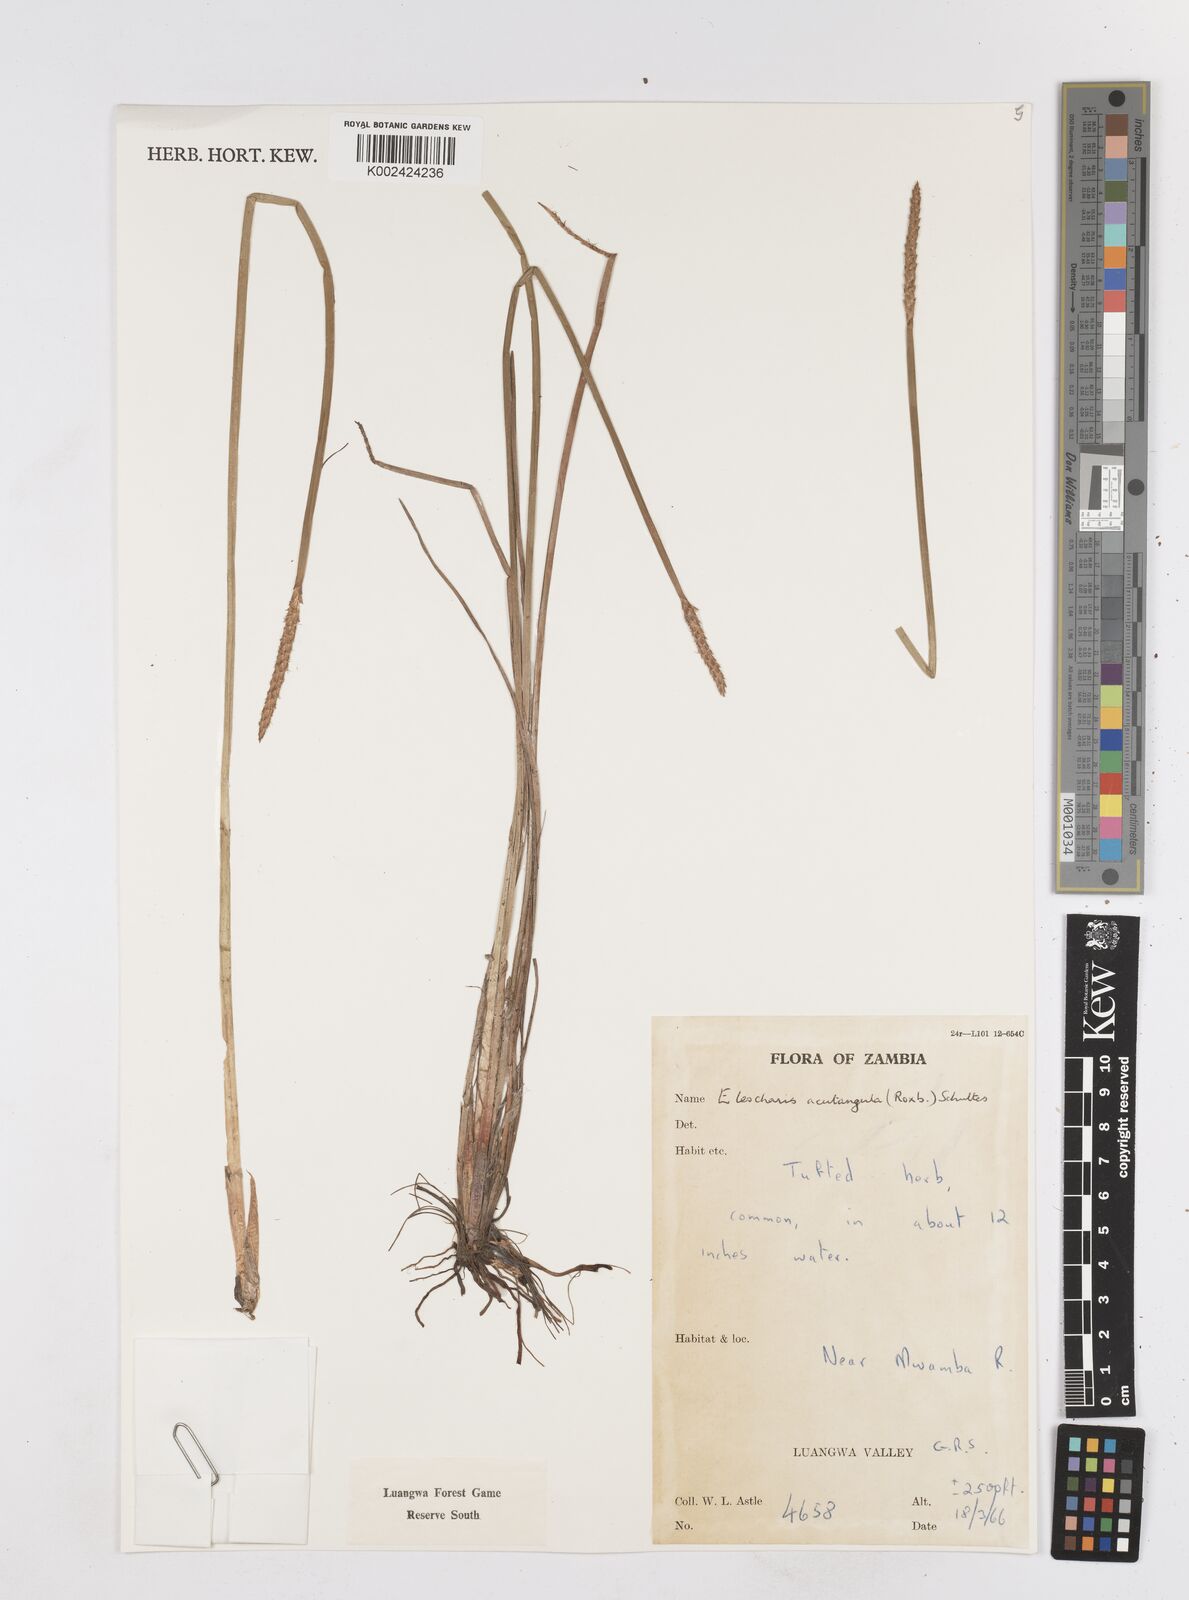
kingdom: Plantae
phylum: Tracheophyta
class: Liliopsida
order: Poales
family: Cyperaceae
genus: Eleocharis
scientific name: Eleocharis acutangula
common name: Acute spikerush
